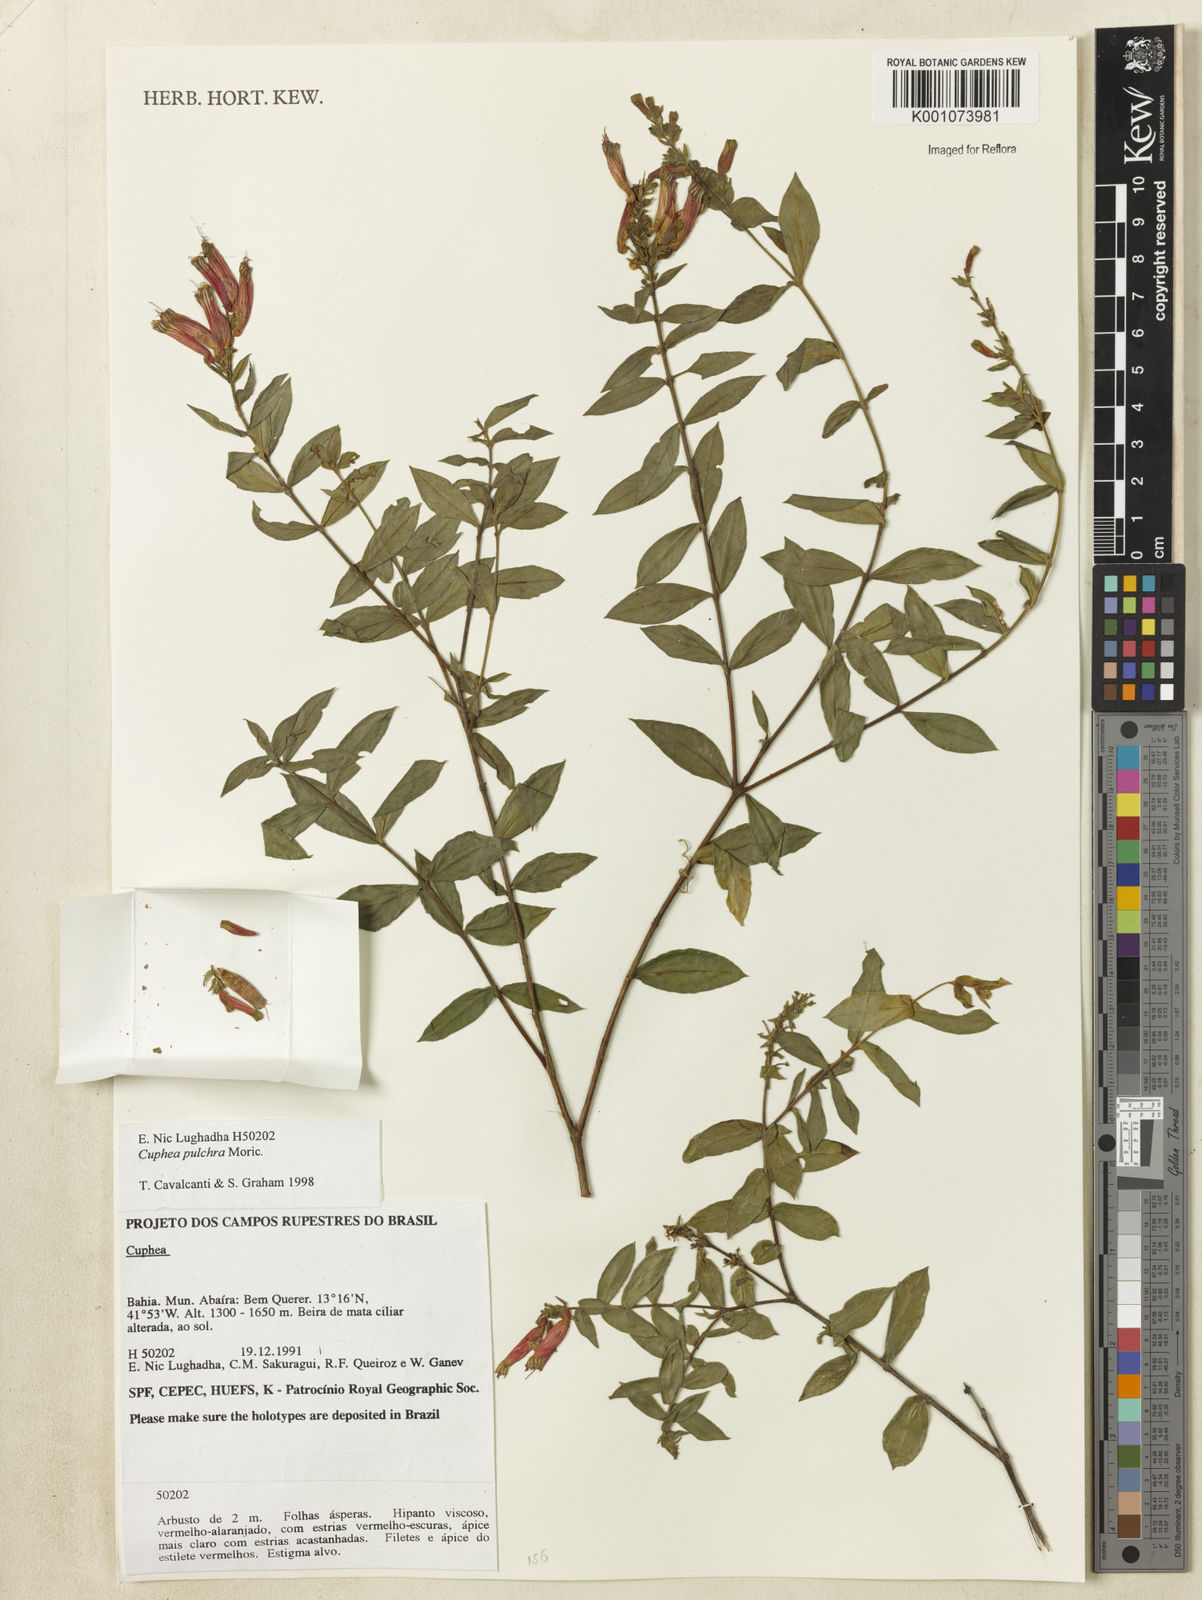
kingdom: Plantae
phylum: Tracheophyta
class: Magnoliopsida
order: Myrtales
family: Lythraceae
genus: Cuphea
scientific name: Cuphea pulchra
